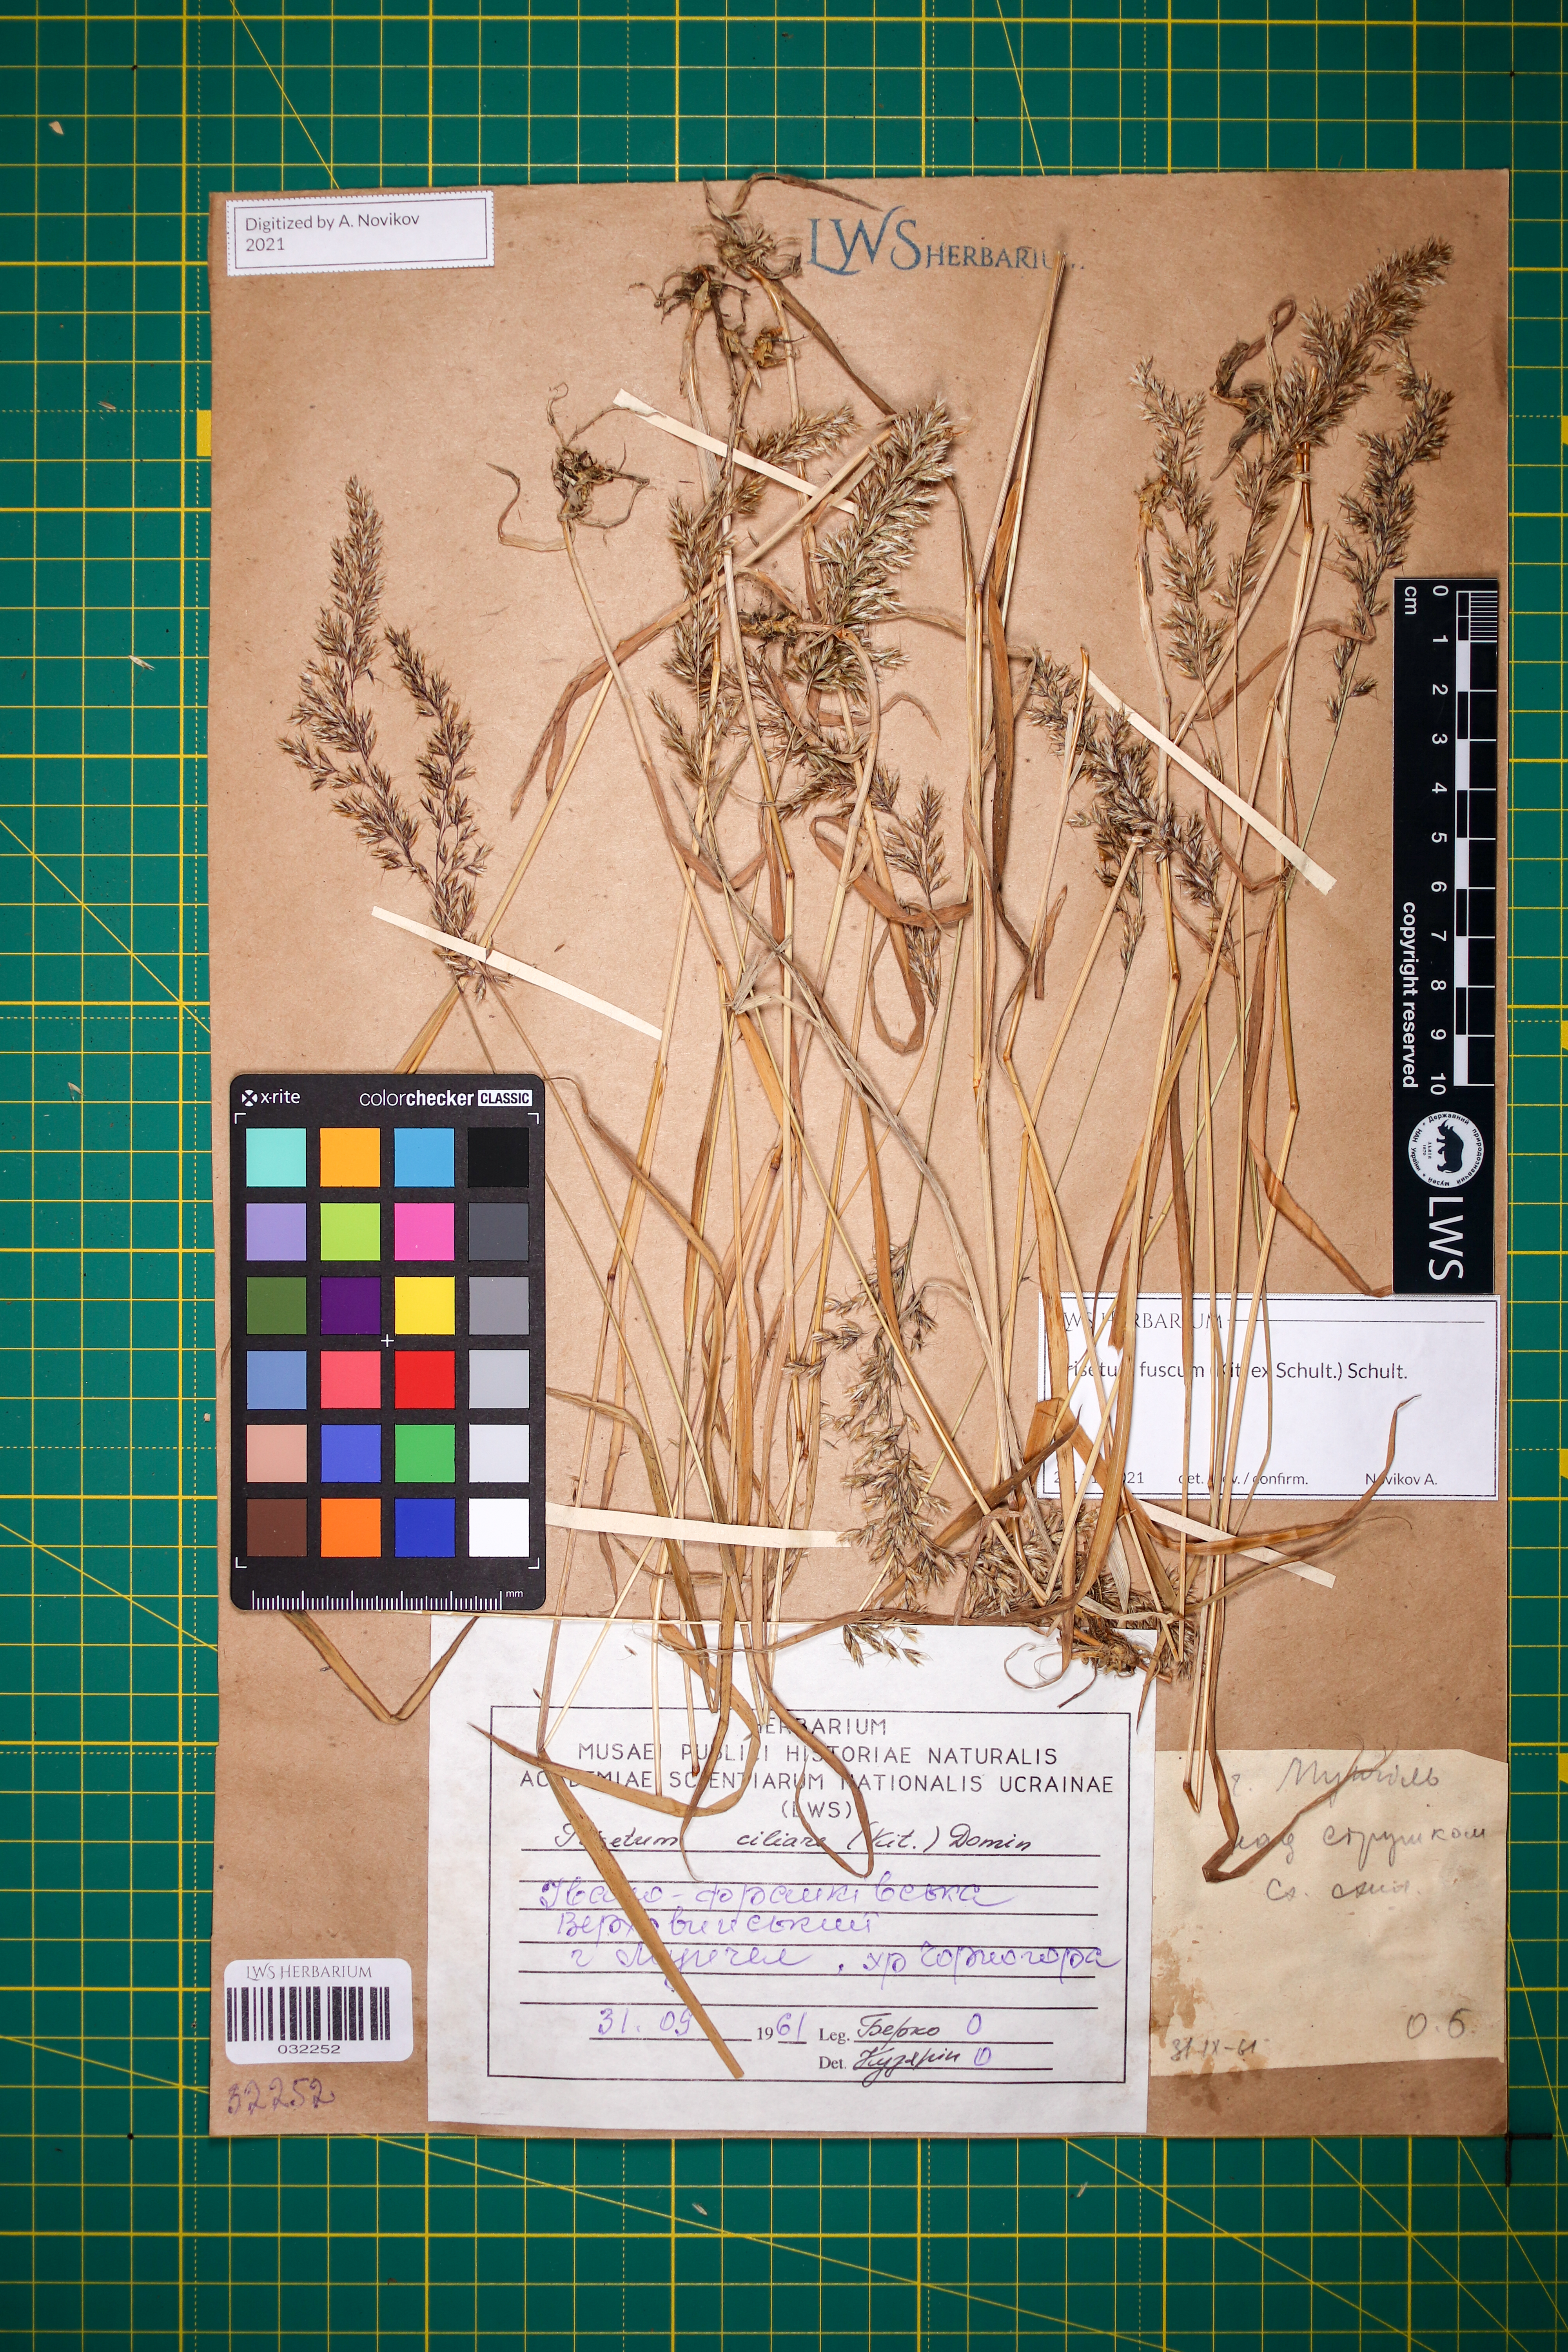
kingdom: Plantae
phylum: Tracheophyta
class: Liliopsida
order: Poales
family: Poaceae
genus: Trisetum
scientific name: Trisetum fuscum
